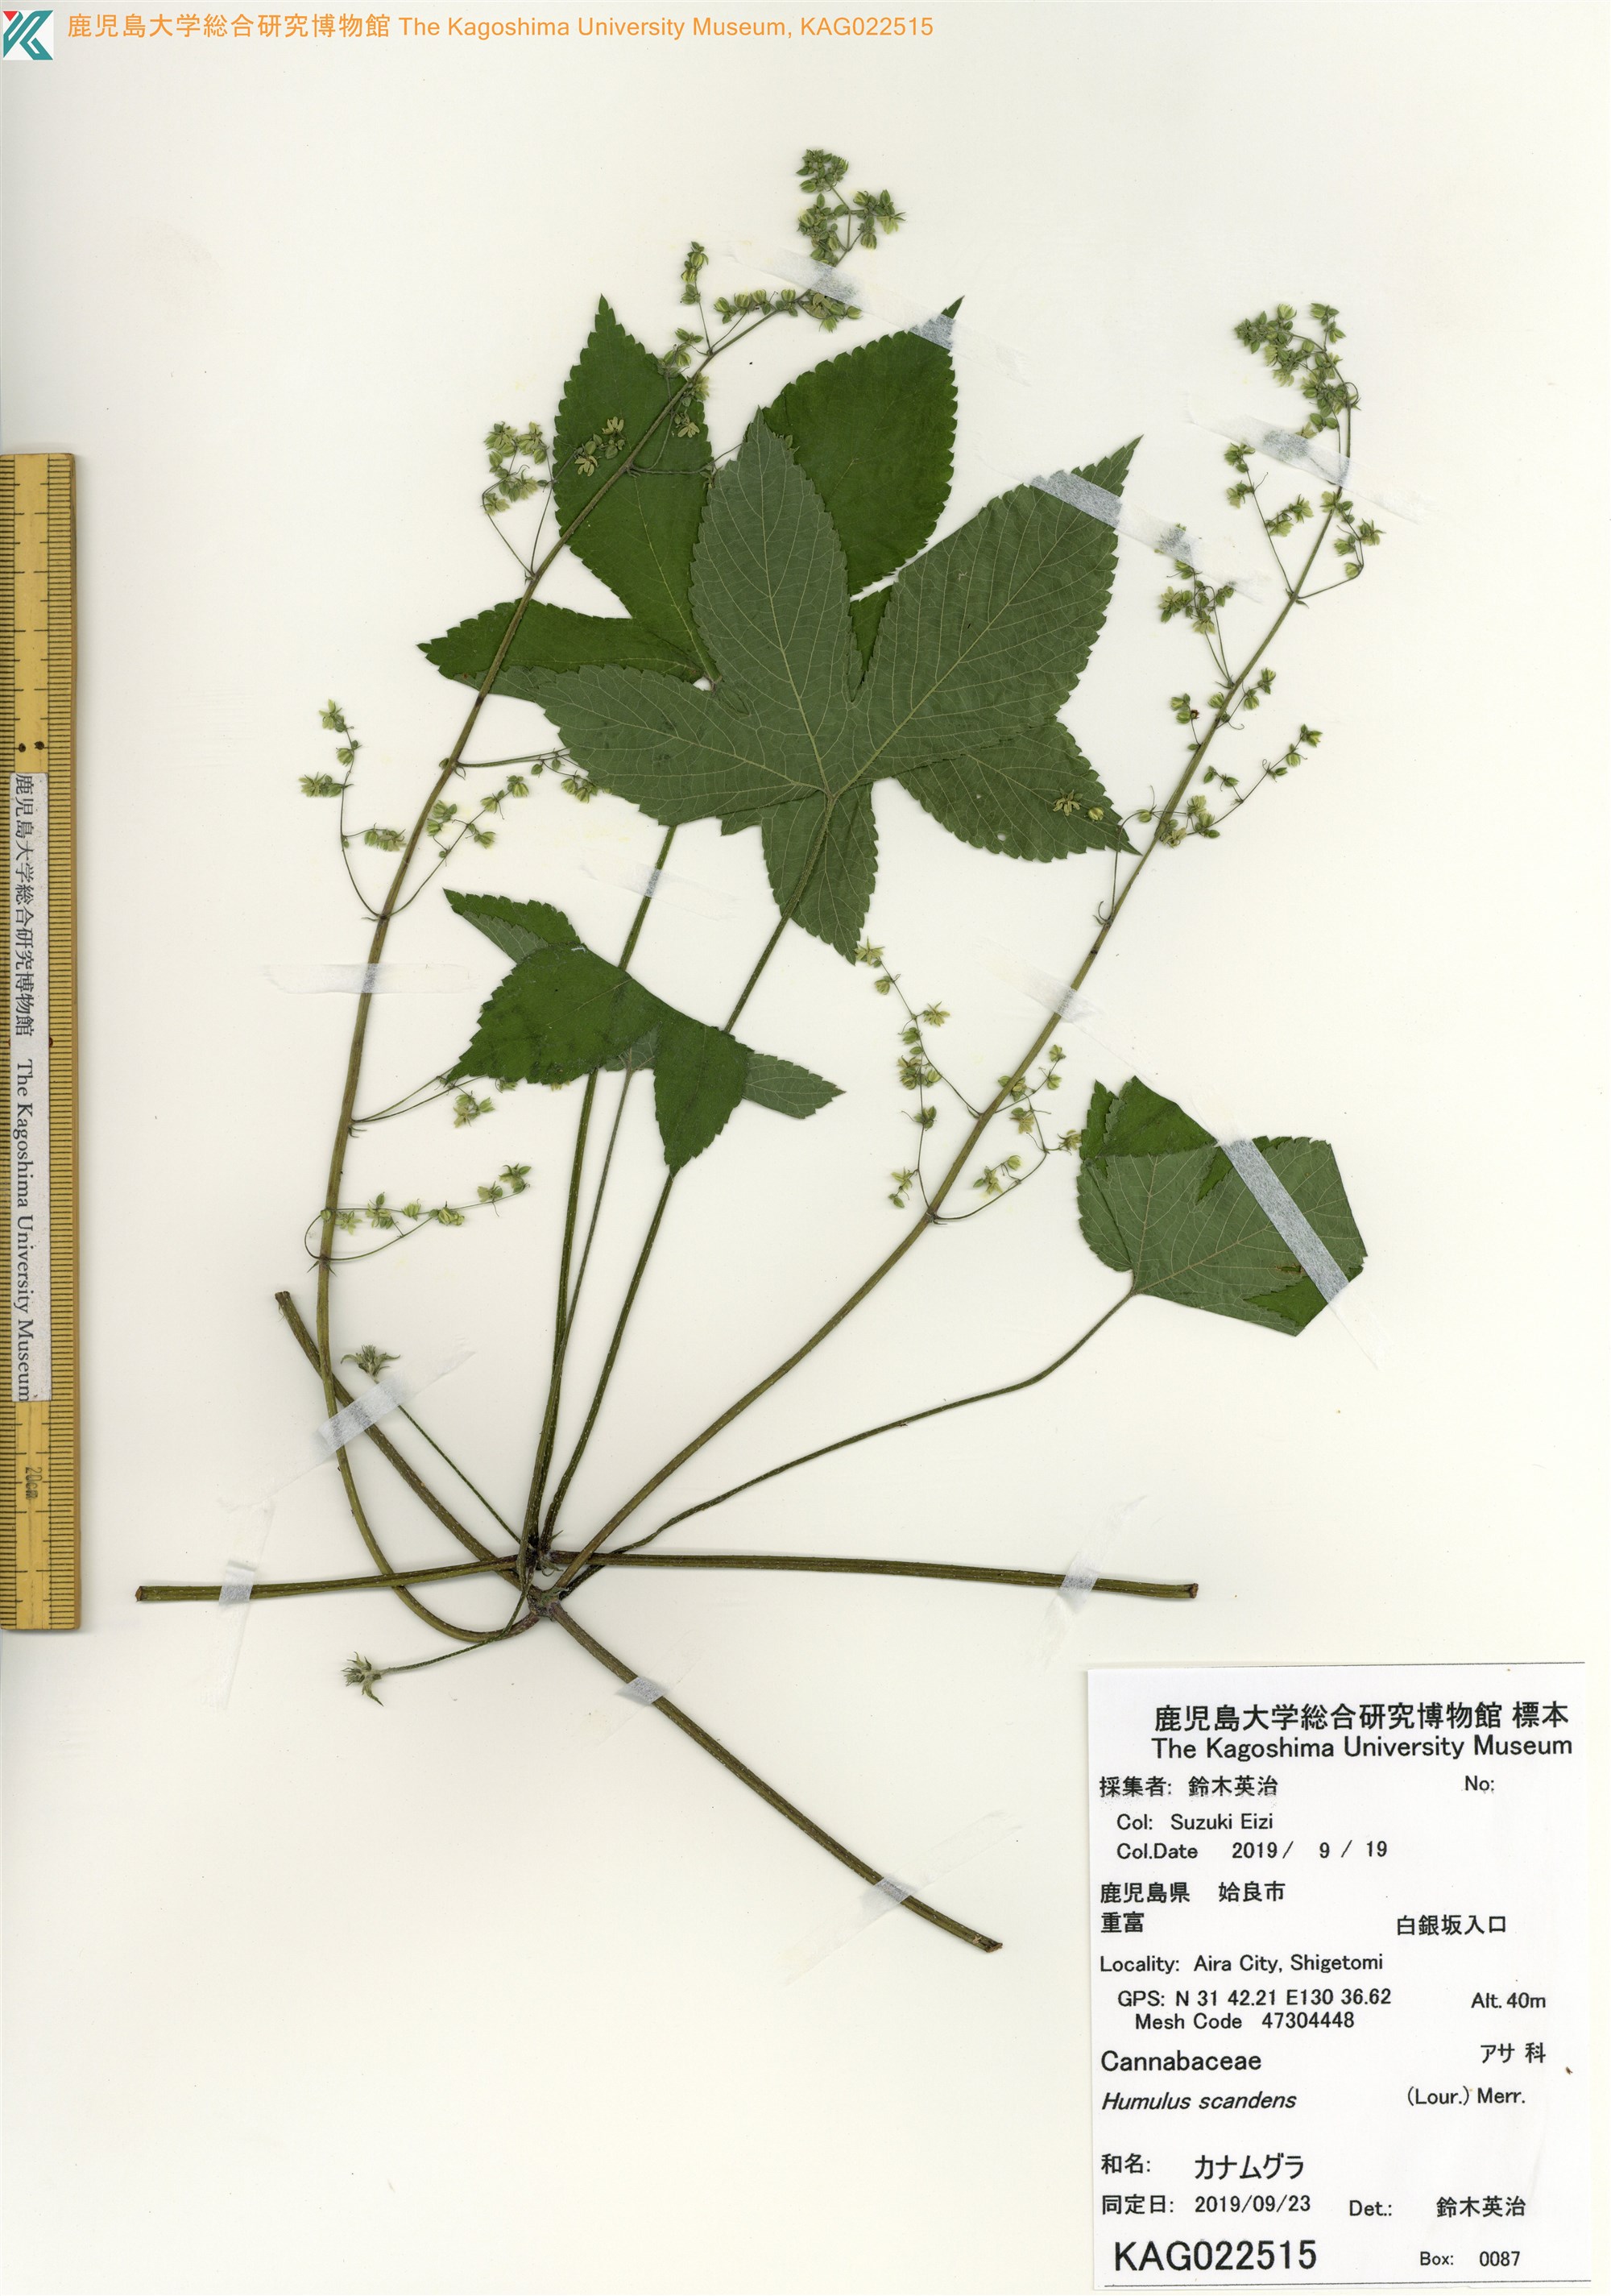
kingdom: Plantae
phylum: Tracheophyta
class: Magnoliopsida
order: Rosales
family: Cannabaceae
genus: Humulus
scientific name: Humulus scandens
